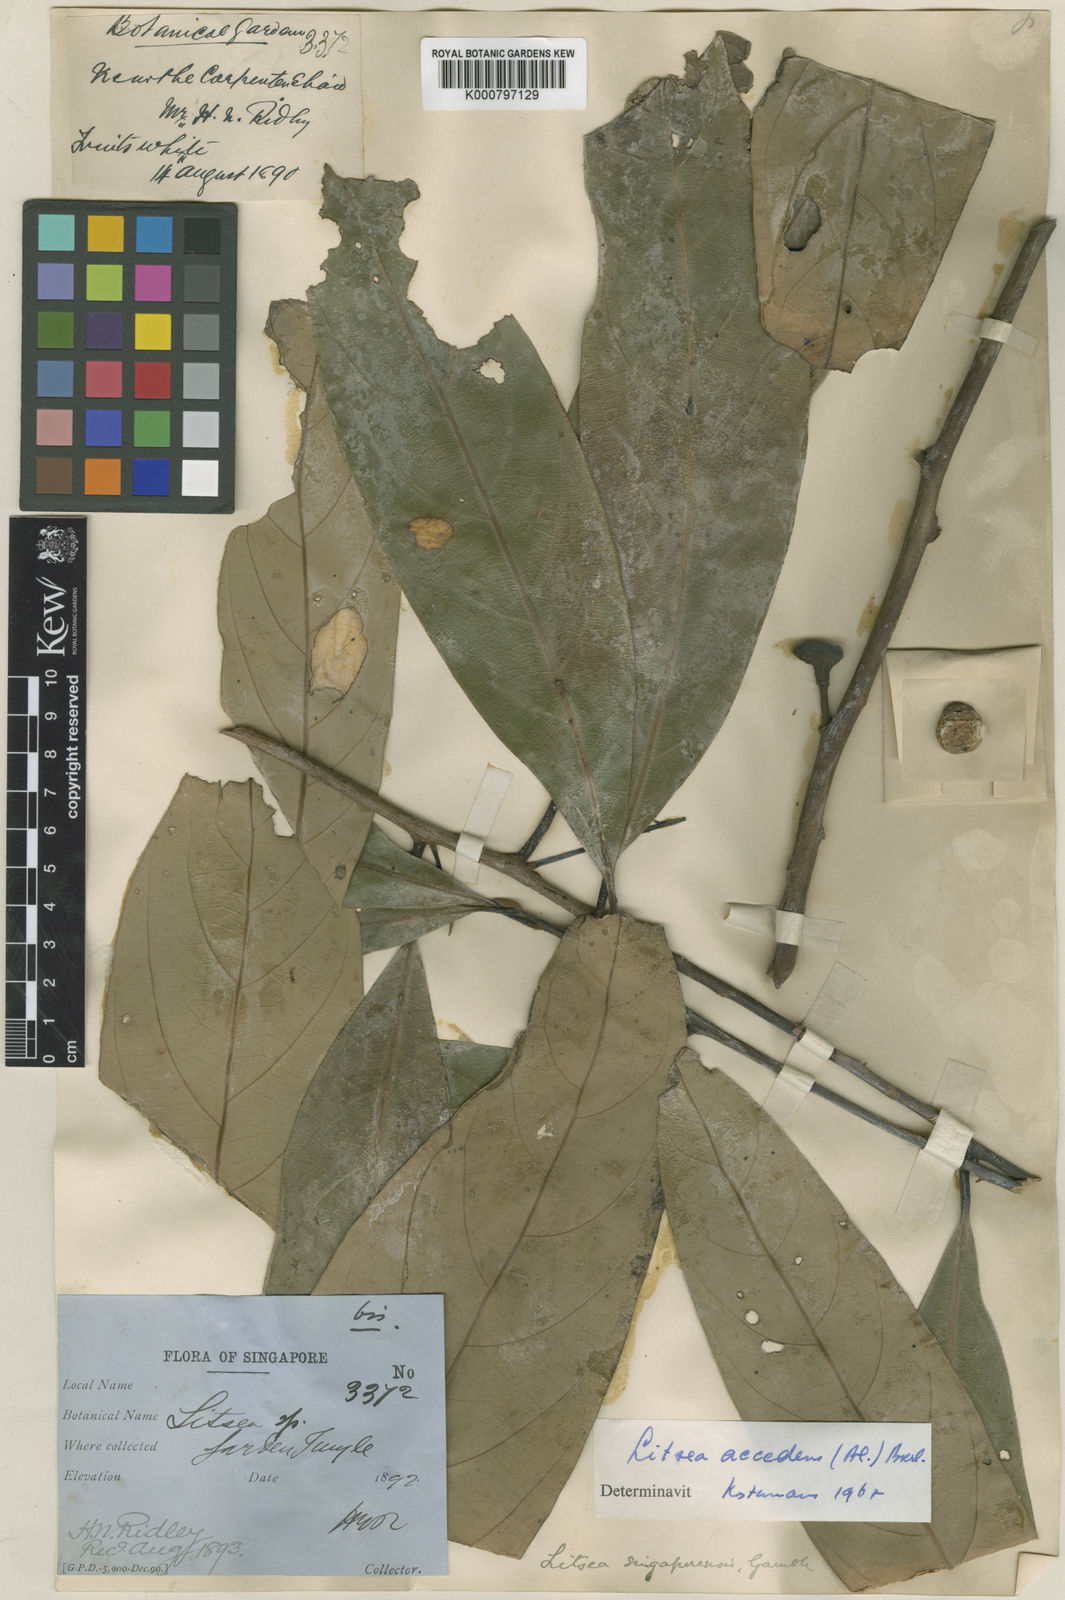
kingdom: Plantae
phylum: Tracheophyta
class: Magnoliopsida
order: Laurales
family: Lauraceae
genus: Litsea
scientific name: Litsea accedens
